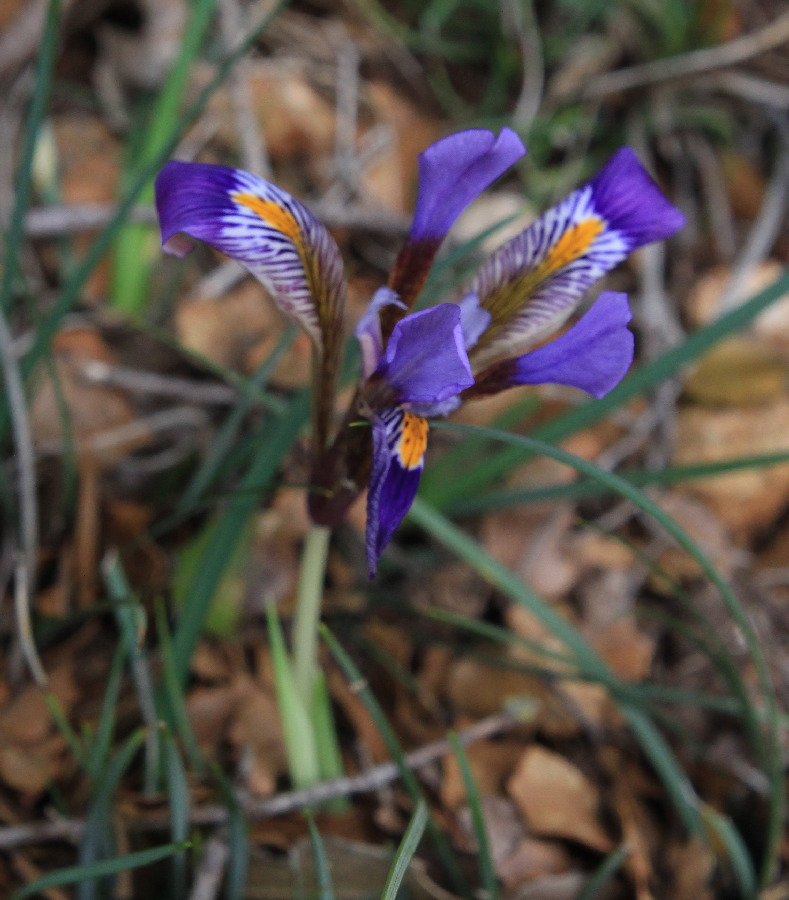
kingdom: Plantae
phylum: Tracheophyta
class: Liliopsida
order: Asparagales
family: Iridaceae
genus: Iris
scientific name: Iris cretica
